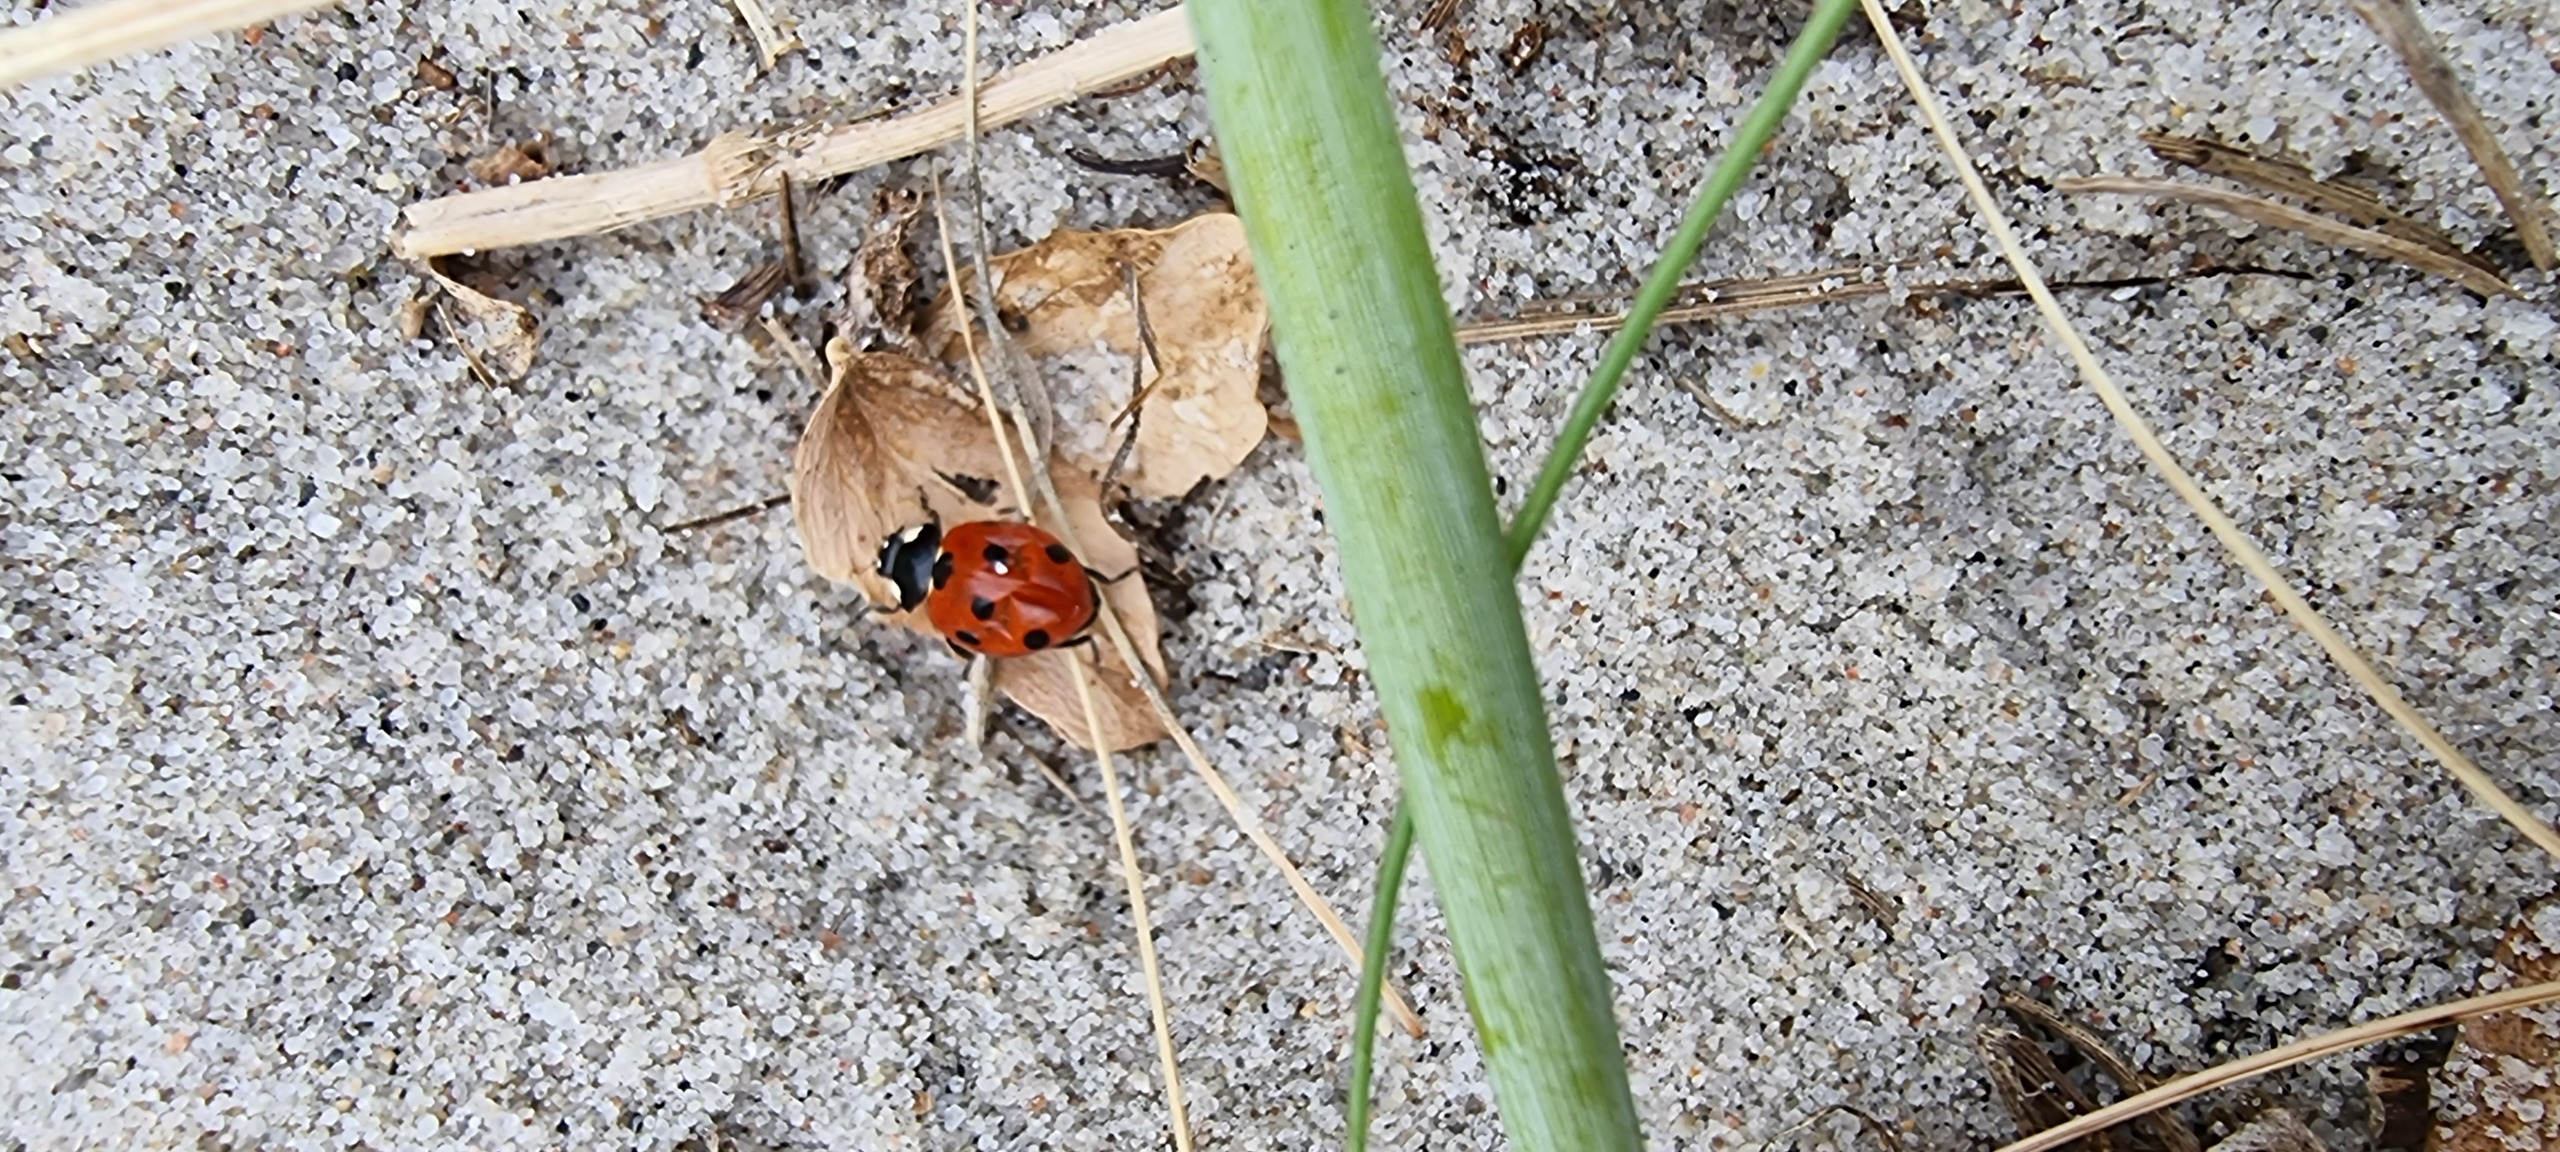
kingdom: Animalia
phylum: Arthropoda
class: Insecta
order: Coleoptera
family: Coccinellidae
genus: Coccinella
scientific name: Coccinella septempunctata
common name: Syvplettet mariehøne
